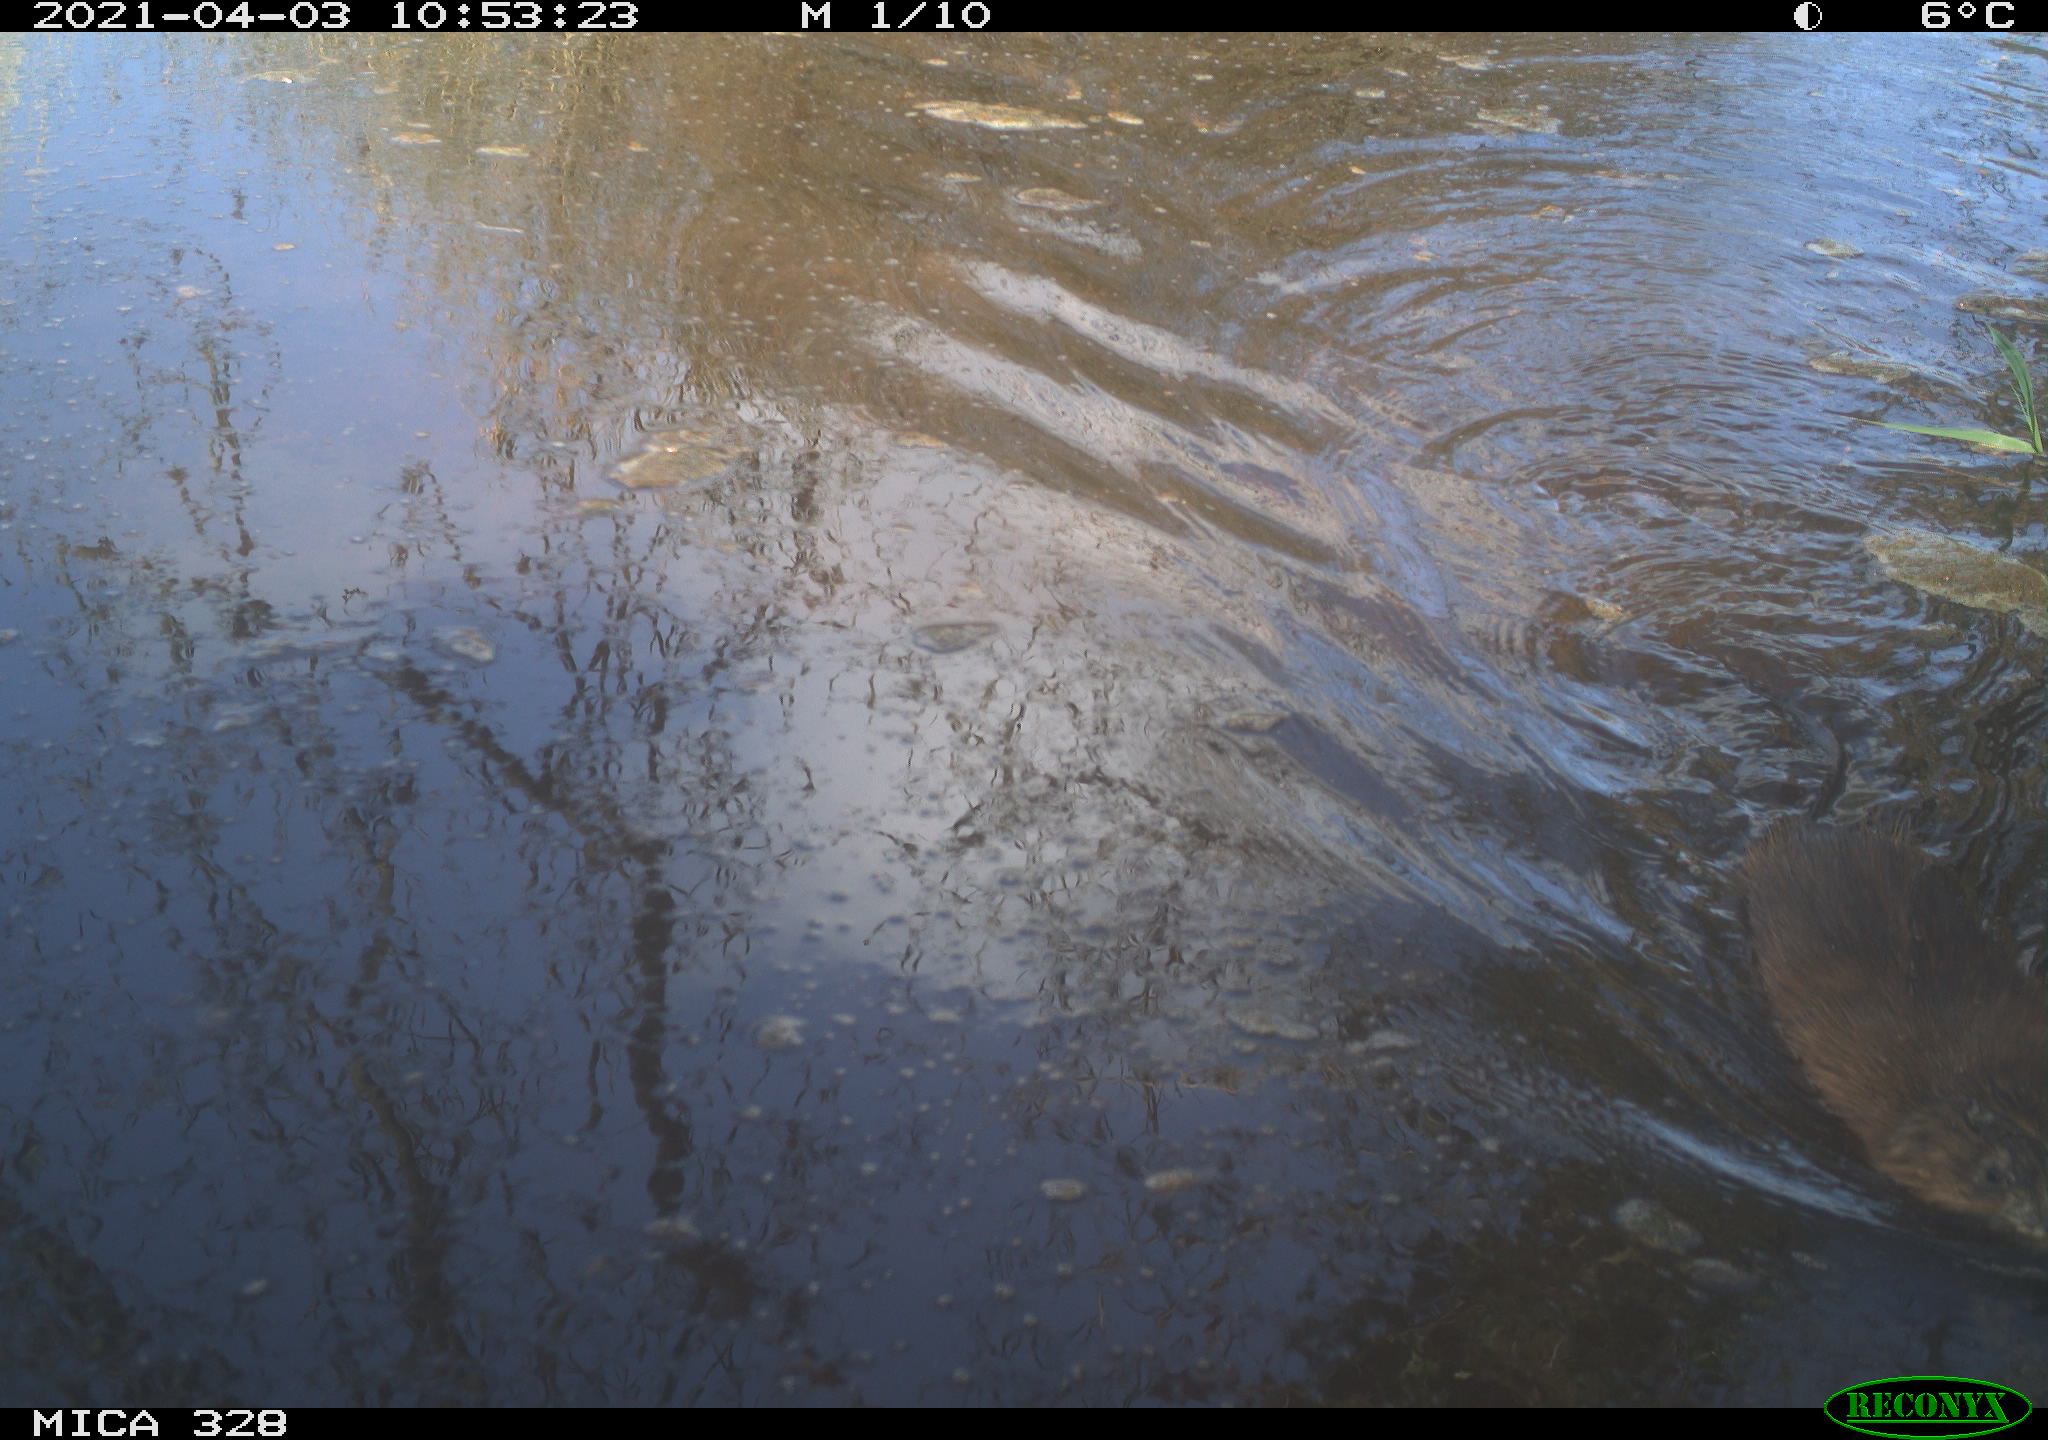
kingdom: Animalia
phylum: Chordata
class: Mammalia
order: Rodentia
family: Cricetidae
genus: Ondatra
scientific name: Ondatra zibethicus
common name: Muskrat
